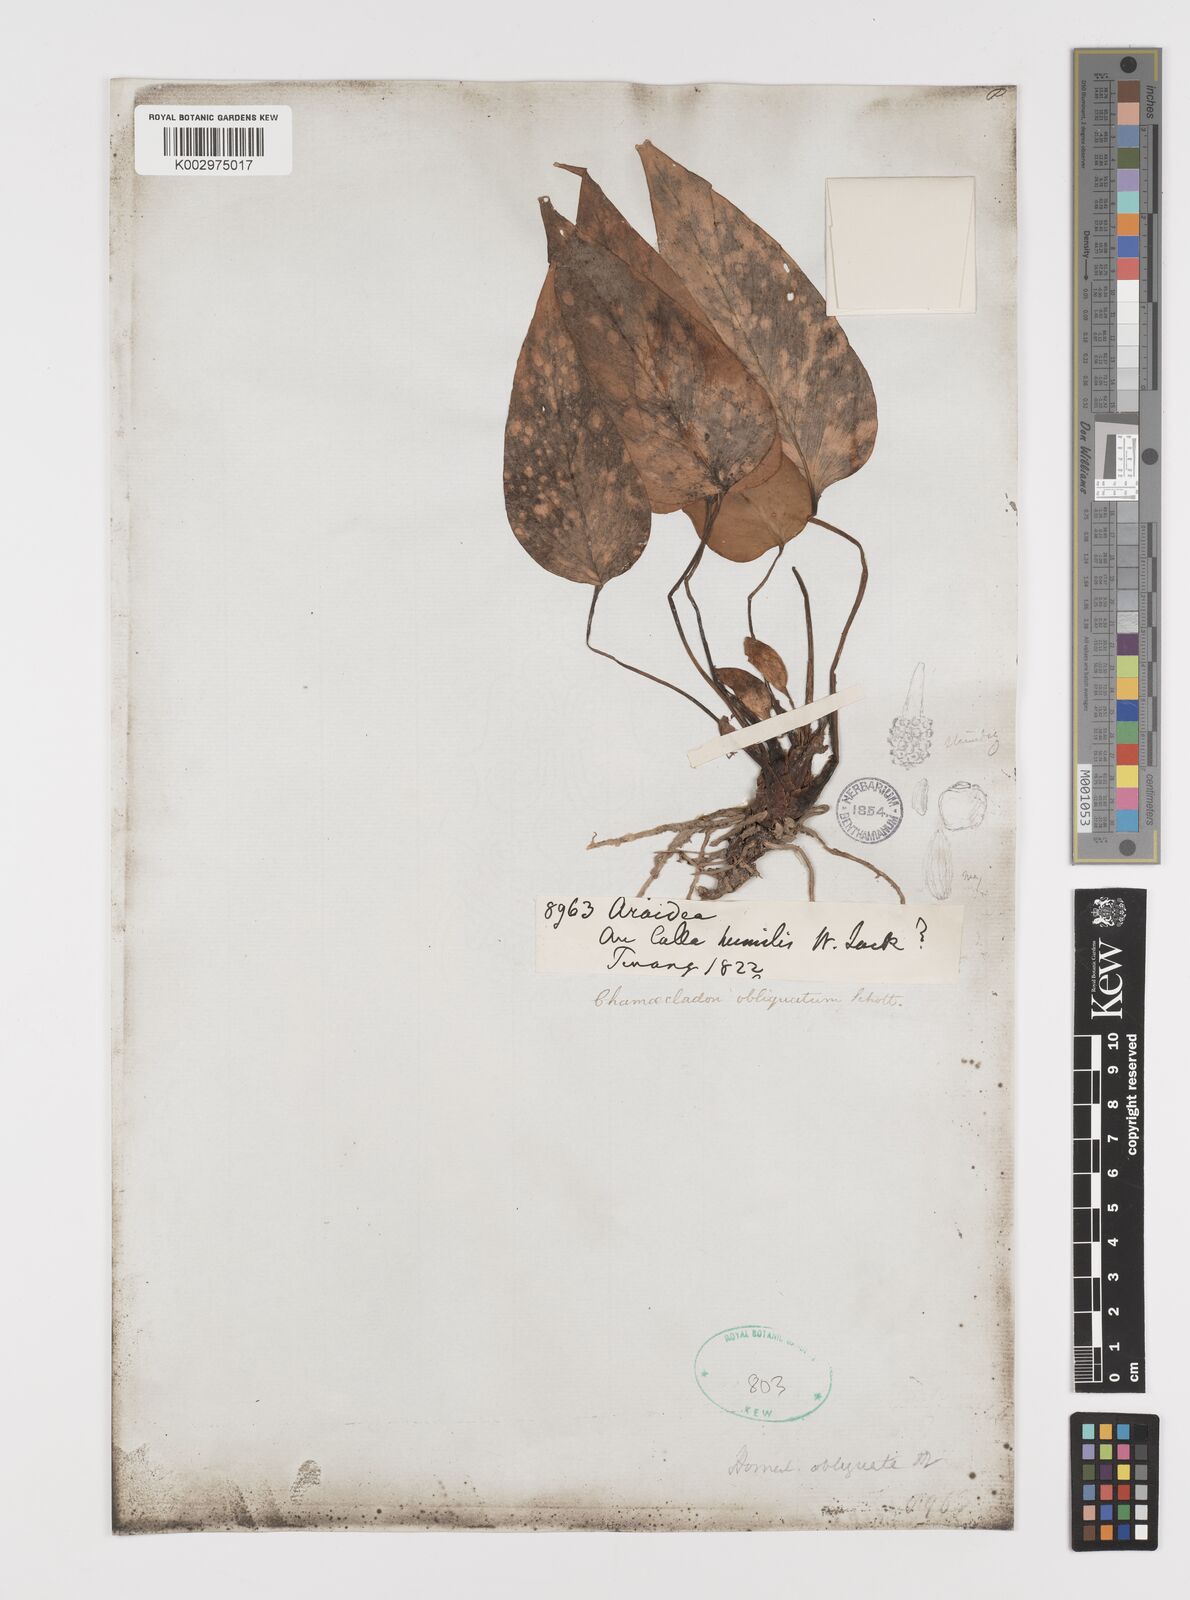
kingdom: Plantae
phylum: Tracheophyta
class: Liliopsida
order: Alismatales
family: Araceae
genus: Homalomena
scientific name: Homalomena griffithii
